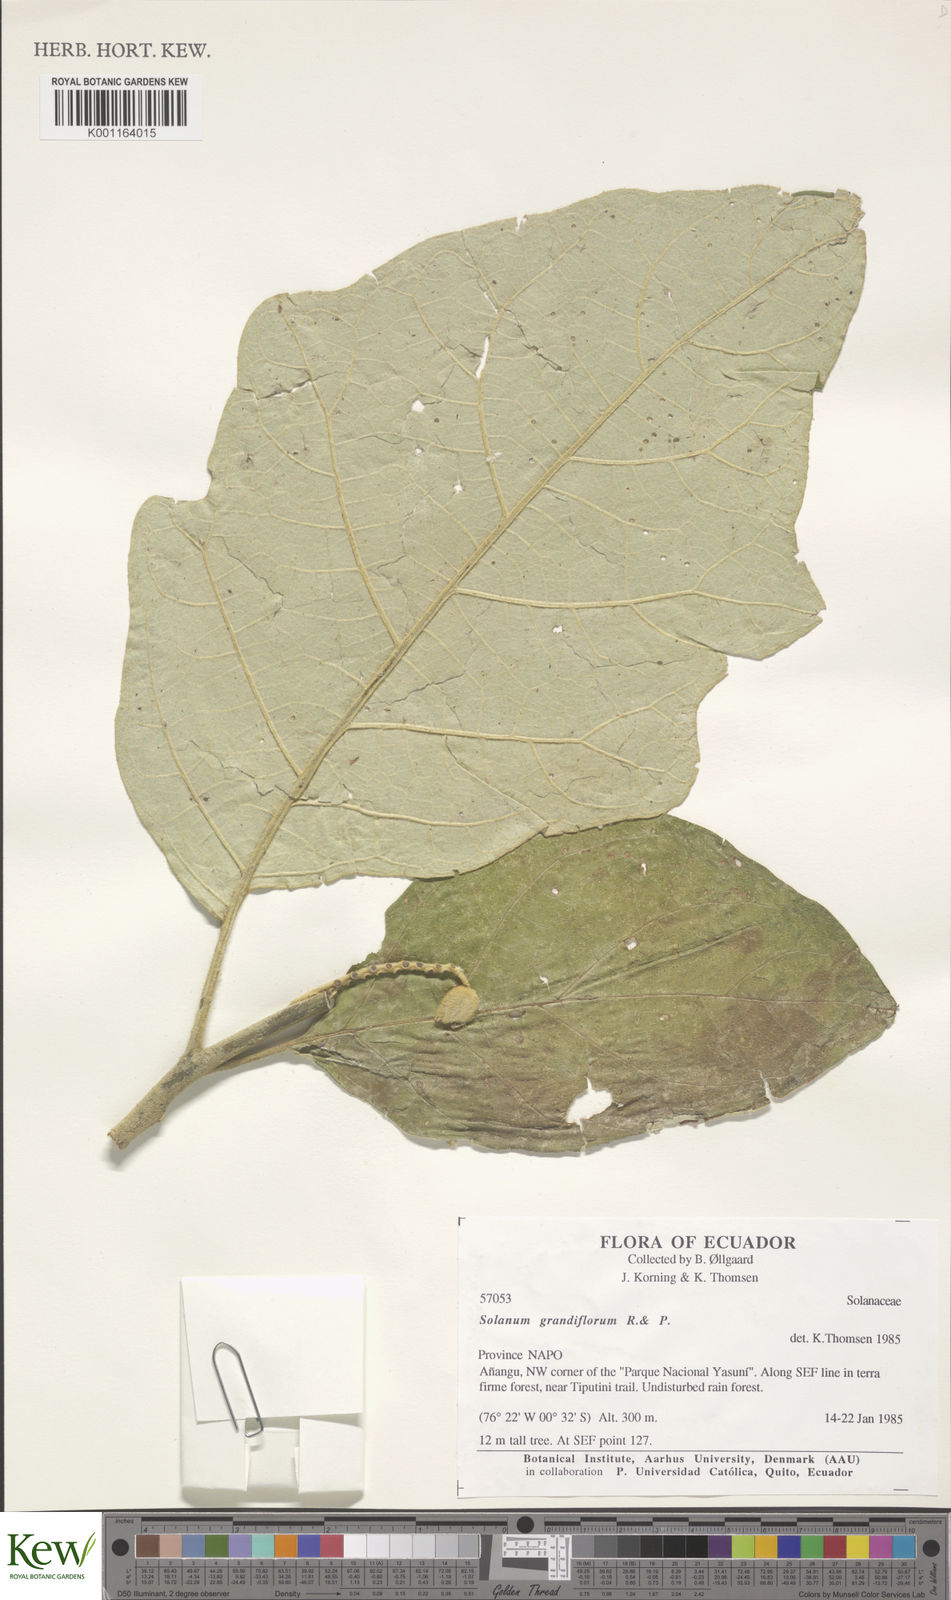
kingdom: Plantae
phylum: Tracheophyta
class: Magnoliopsida
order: Solanales
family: Solanaceae
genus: Solanum
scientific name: Solanum grandiflorum
